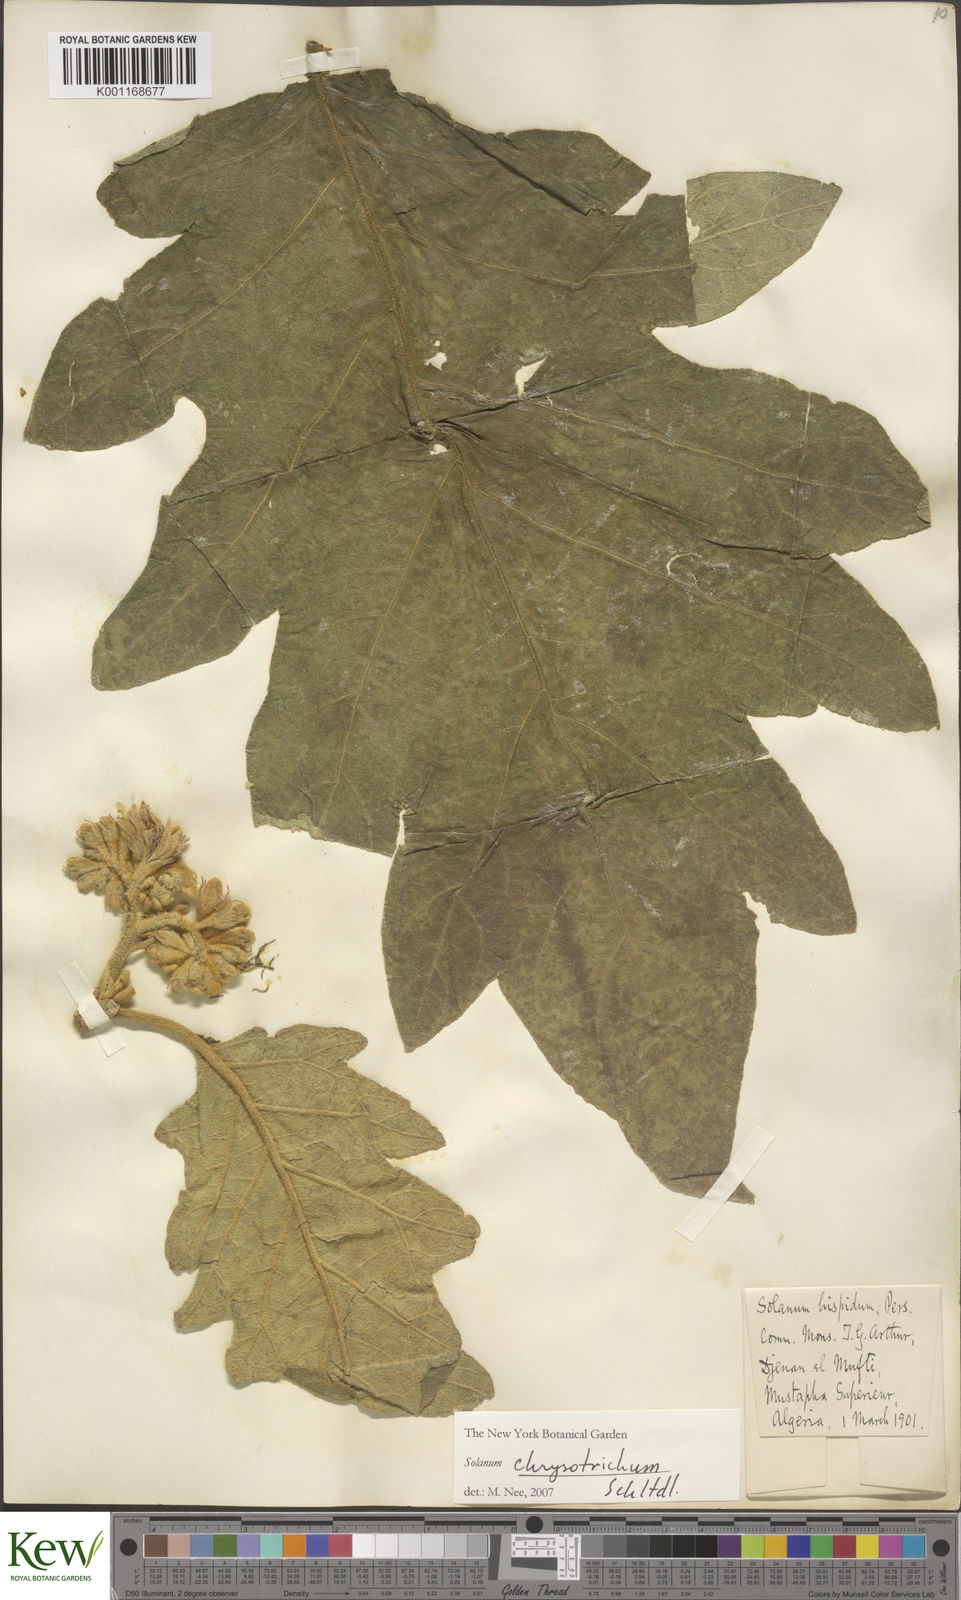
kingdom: Plantae
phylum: Tracheophyta
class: Magnoliopsida
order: Solanales
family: Solanaceae
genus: Solanum
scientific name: Solanum chrysotrichum
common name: Nightshade
